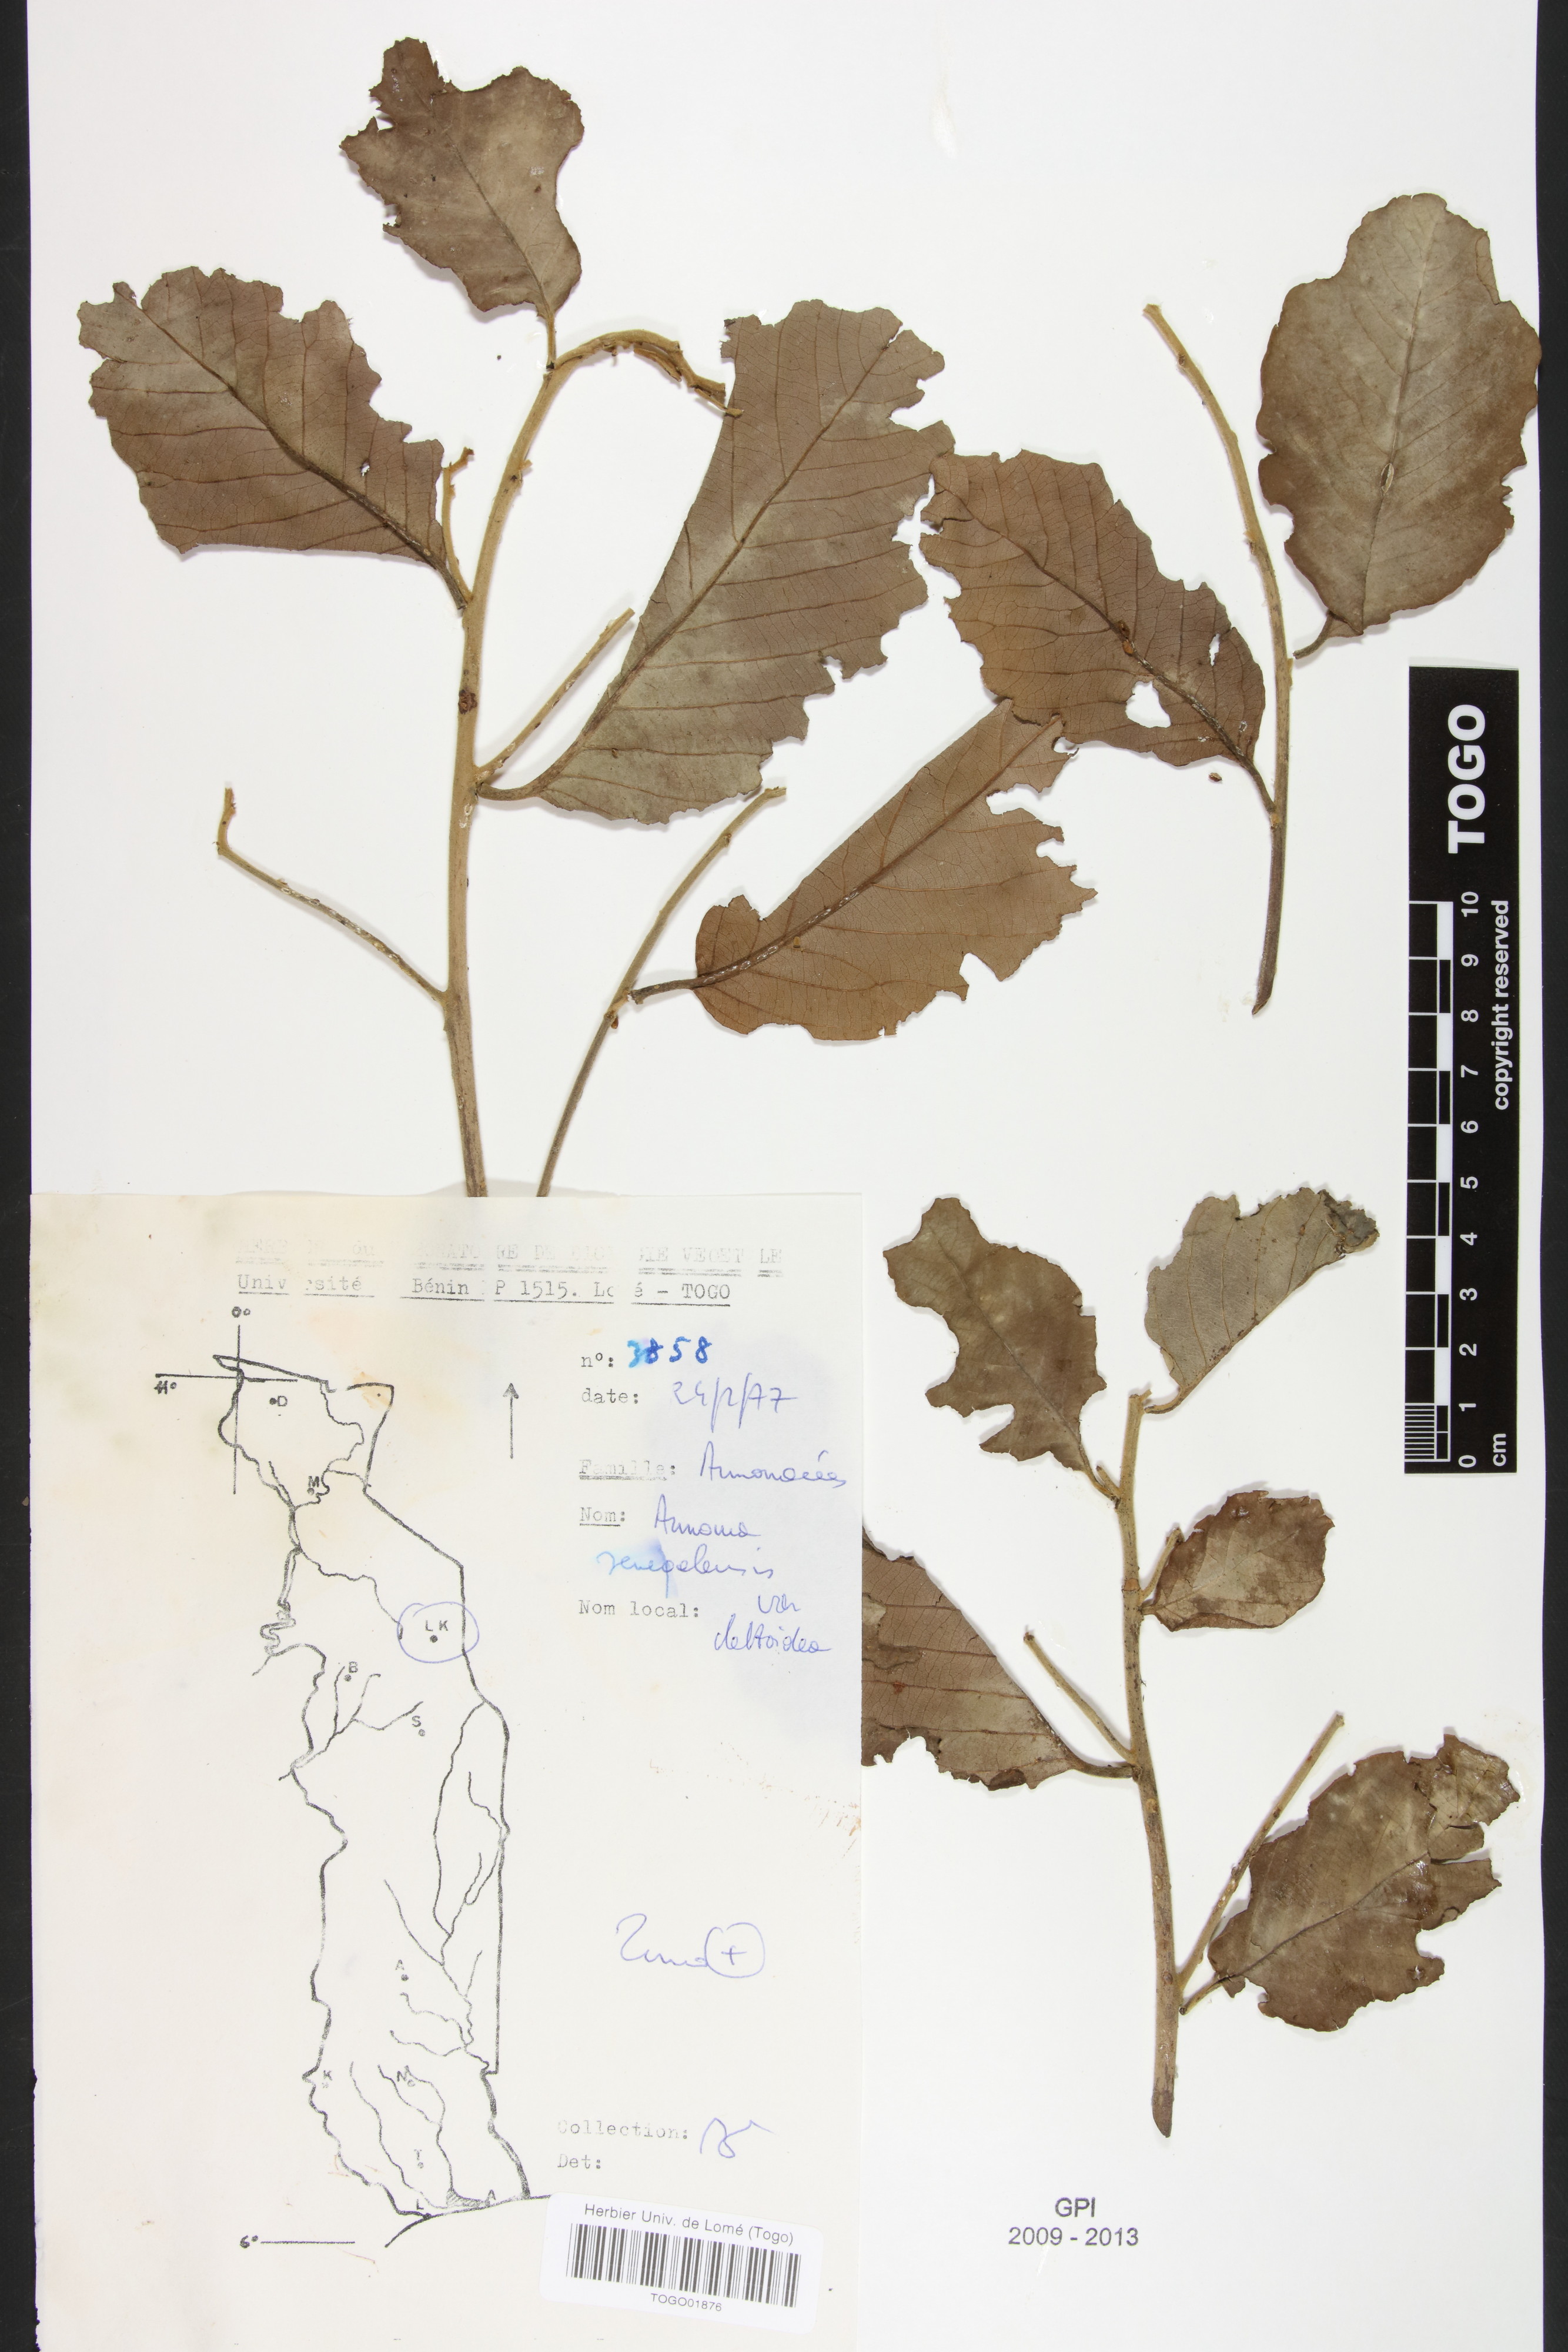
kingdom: Plantae
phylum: Tracheophyta
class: Magnoliopsida
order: Magnoliales
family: Annonaceae
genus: Annona
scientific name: Annona senegalensis
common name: Wild custard-apple
